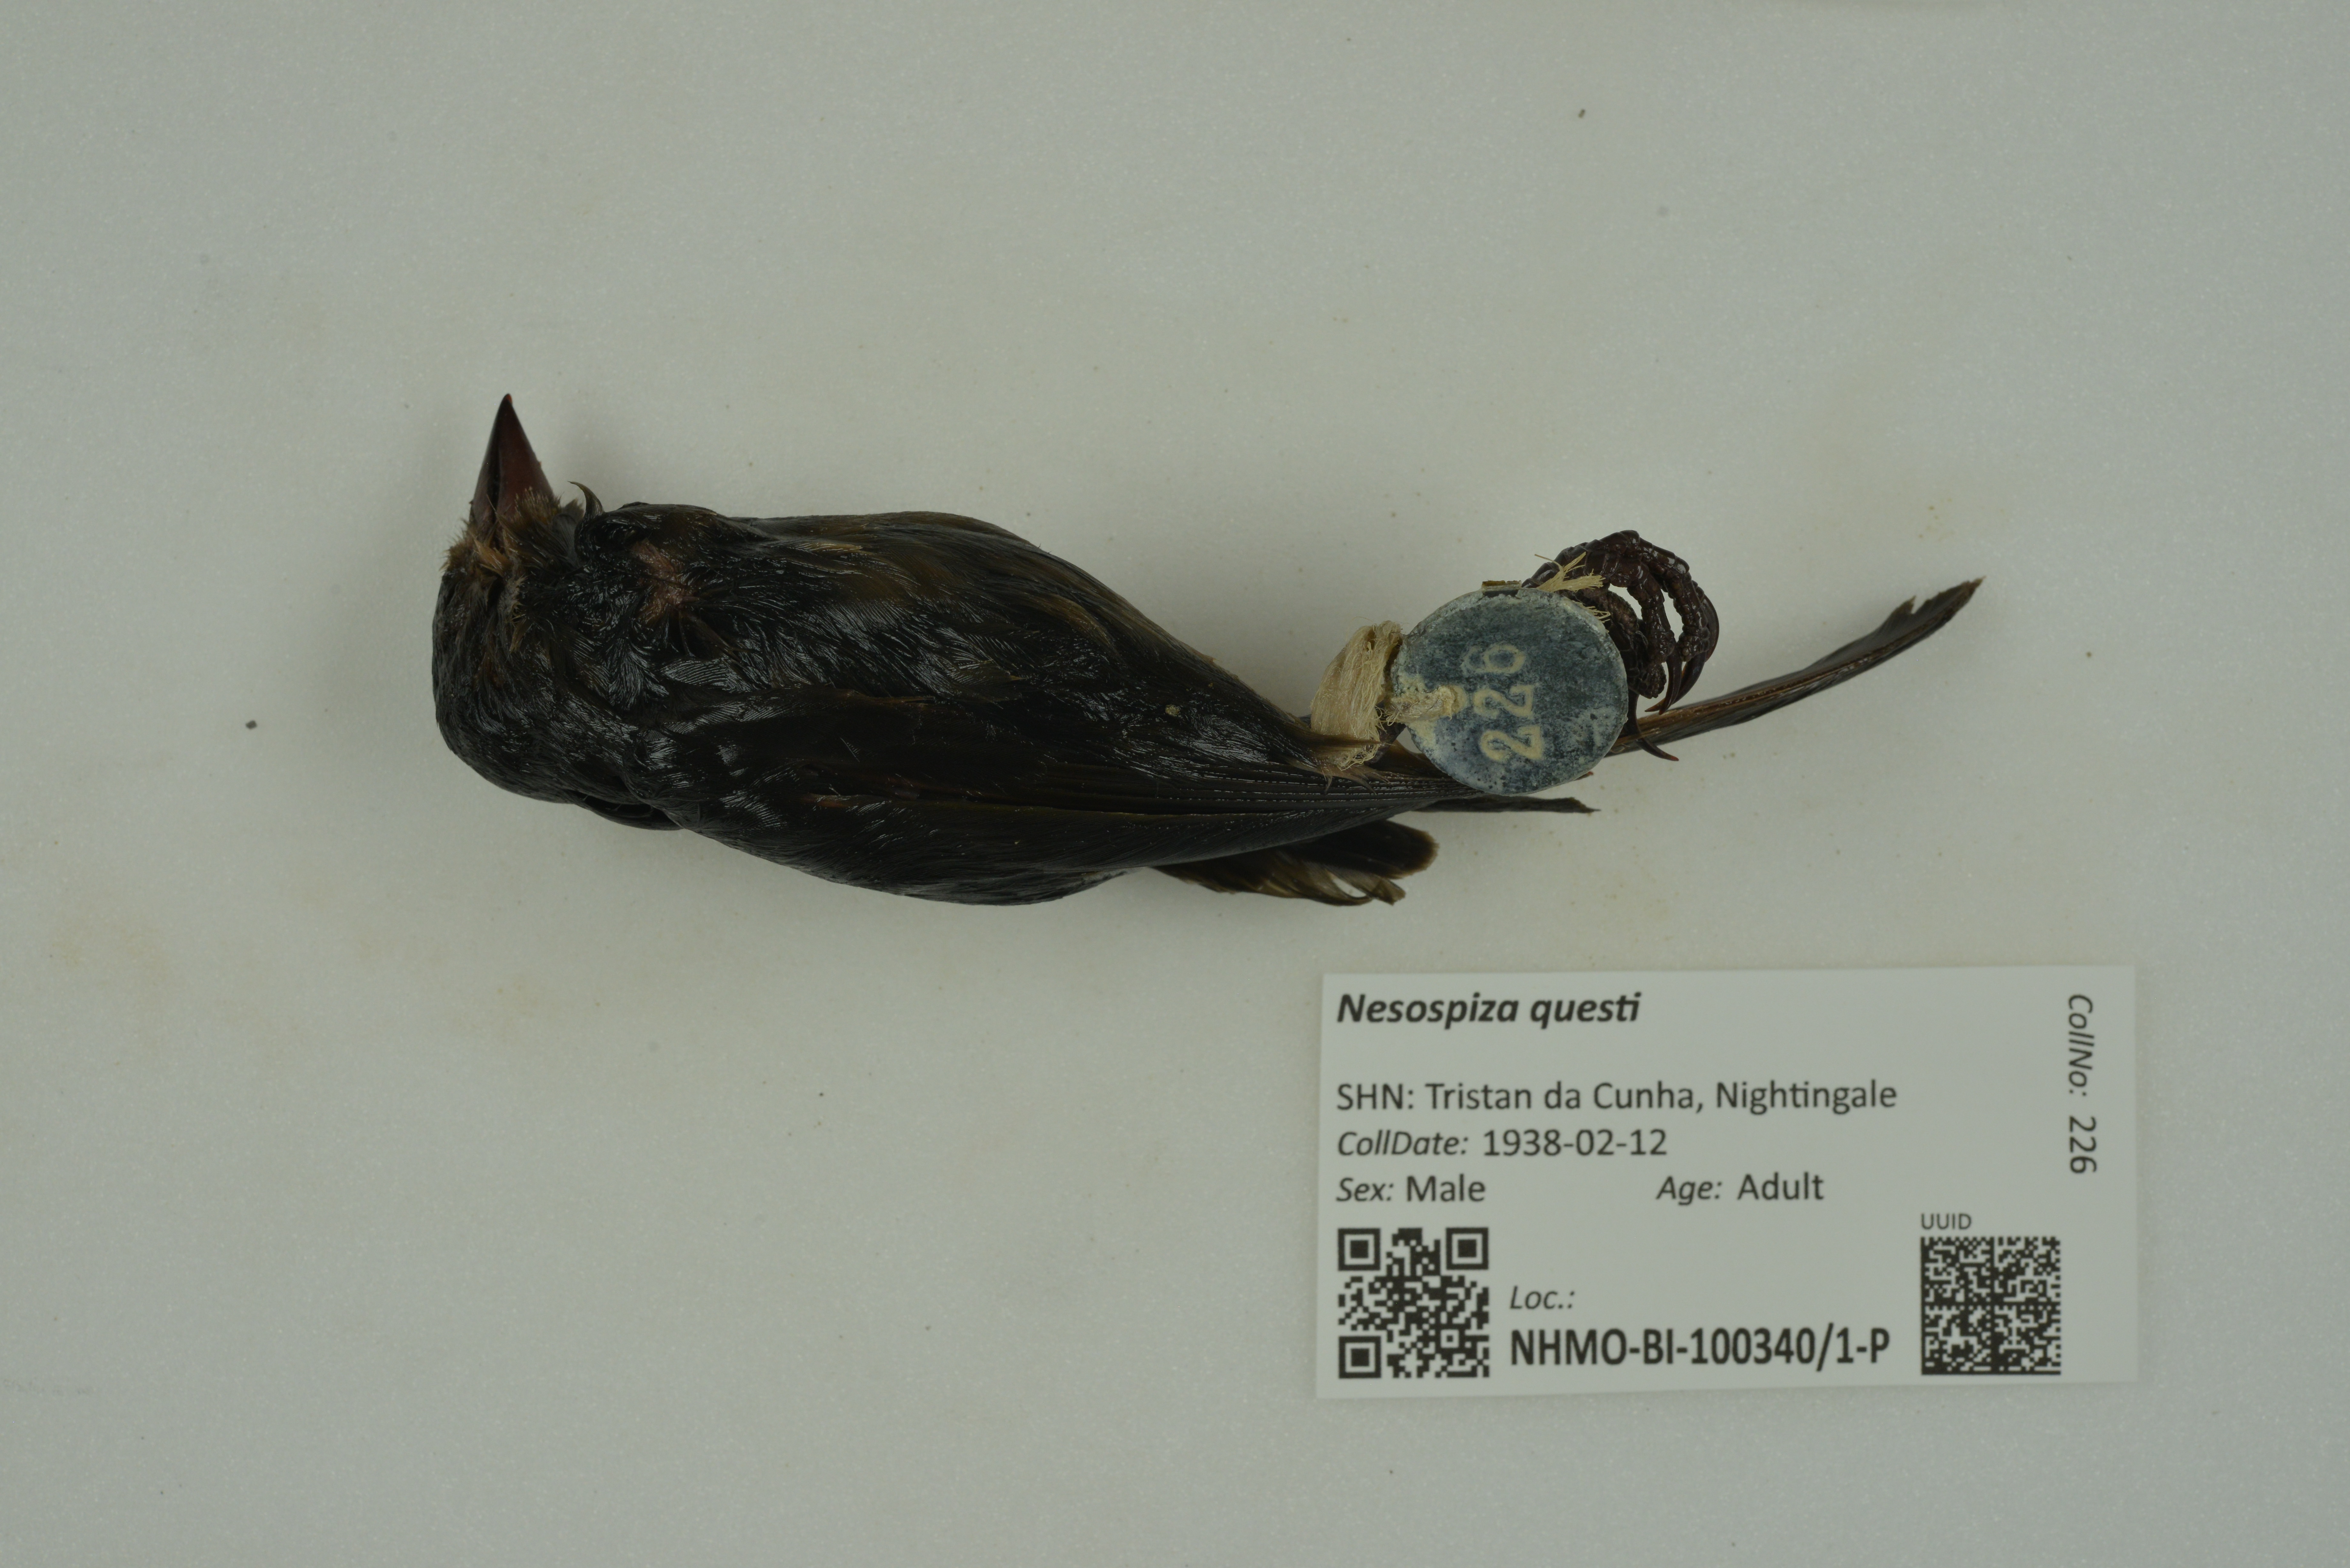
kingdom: Animalia
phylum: Chordata
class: Aves
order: Passeriformes
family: Thraupidae
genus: Nesospiza
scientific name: Nesospiza questi
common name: Nightingale island finch
